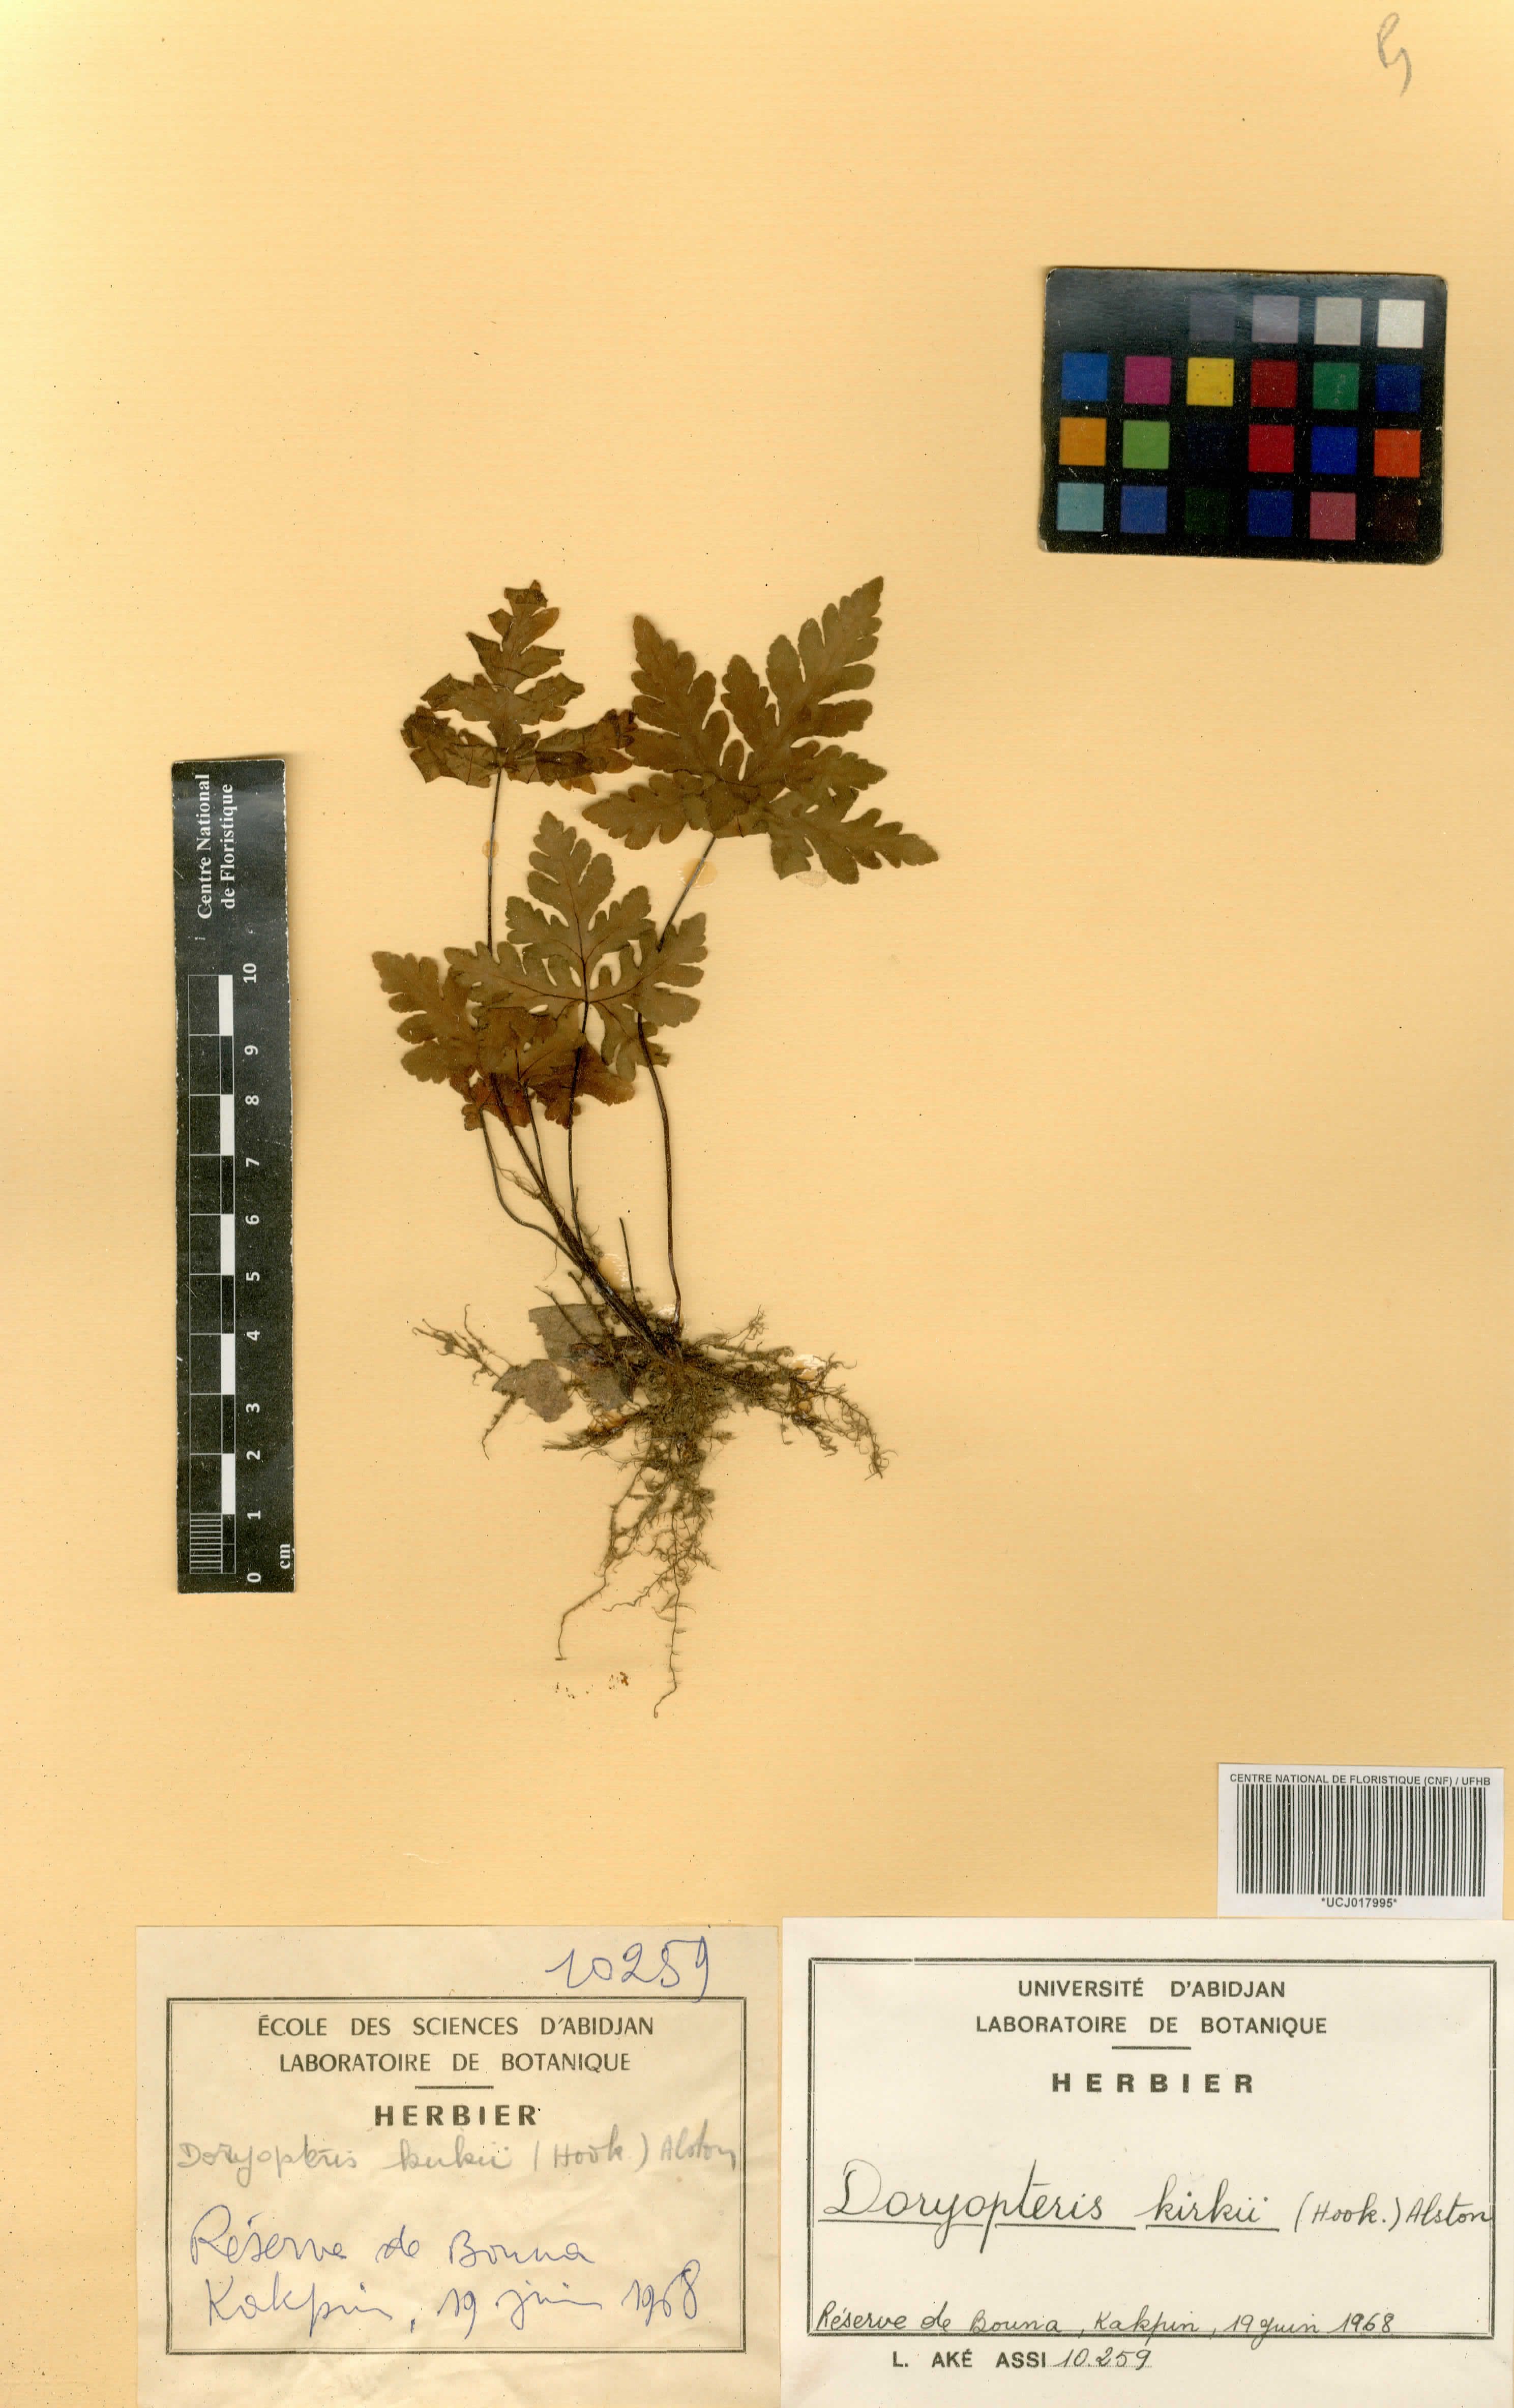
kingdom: Plantae
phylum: Tracheophyta
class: Polypodiopsida
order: Polypodiales
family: Pteridaceae
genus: Doryopteris
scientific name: Doryopteris kirkii
